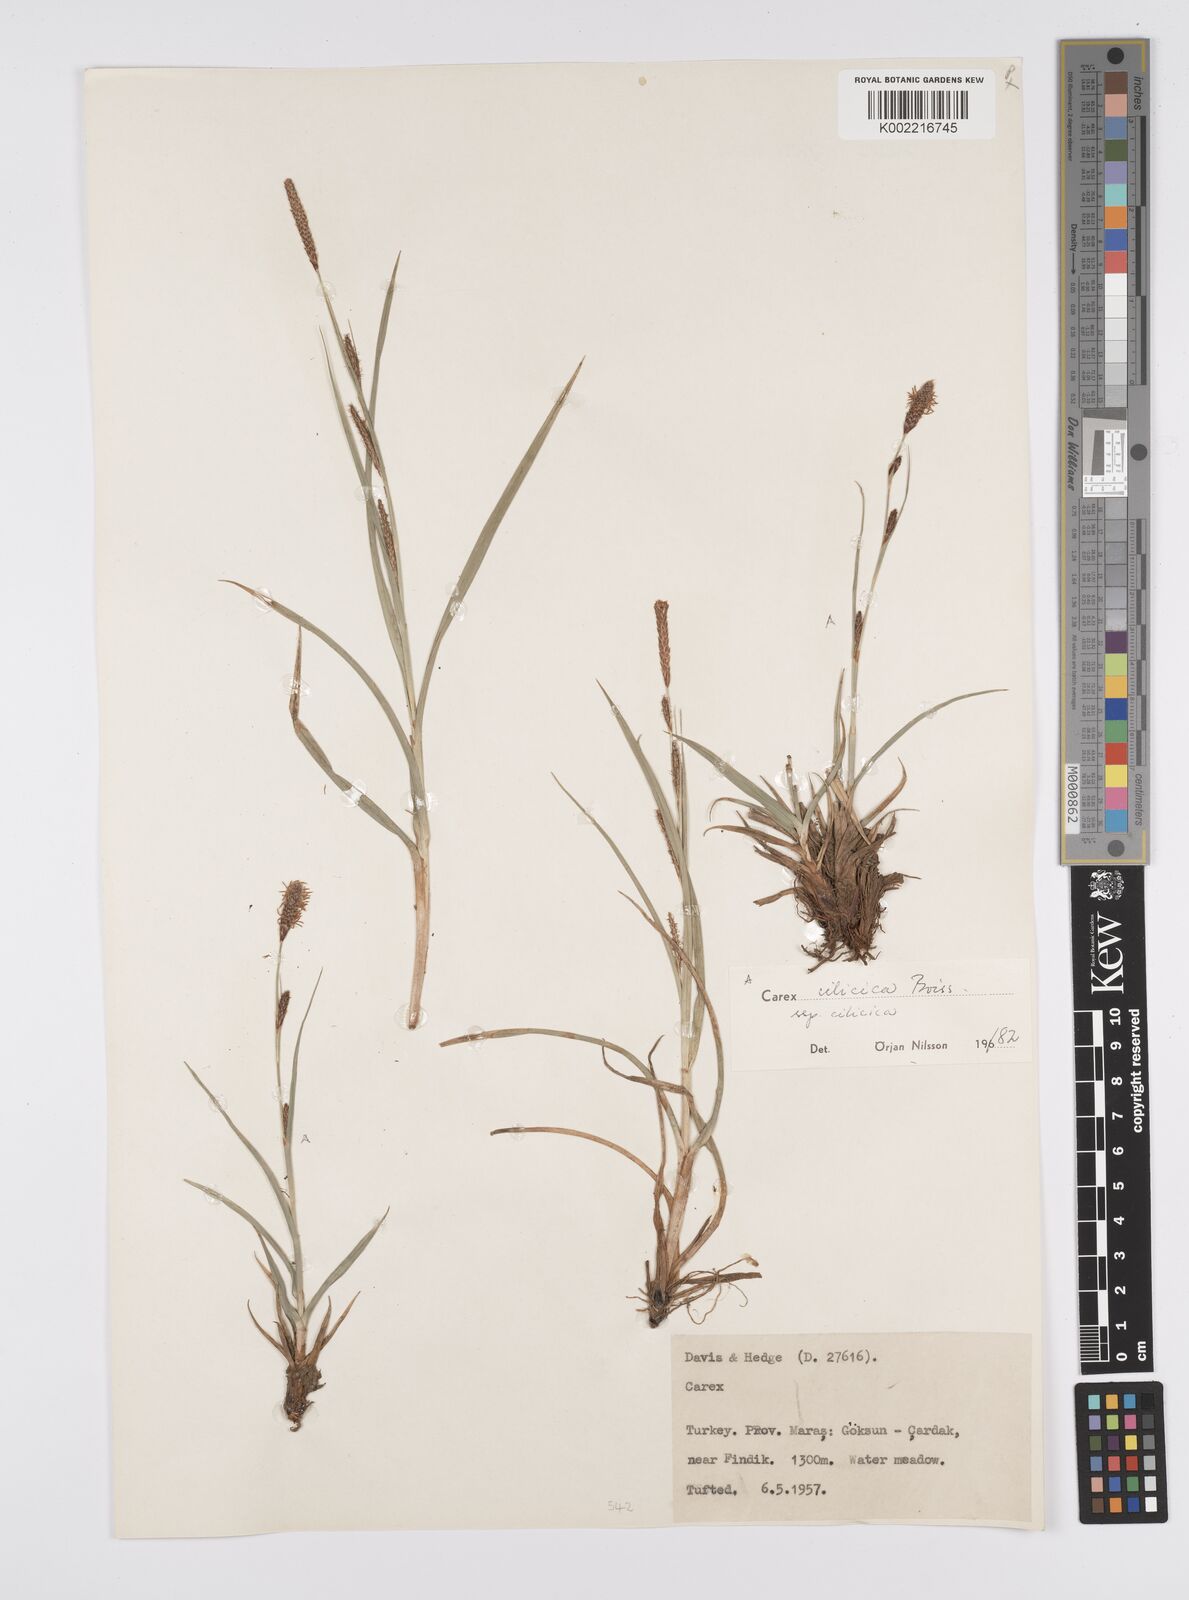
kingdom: Plantae
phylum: Tracheophyta
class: Liliopsida
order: Poales
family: Cyperaceae
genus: Carex
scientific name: Carex cilicica
